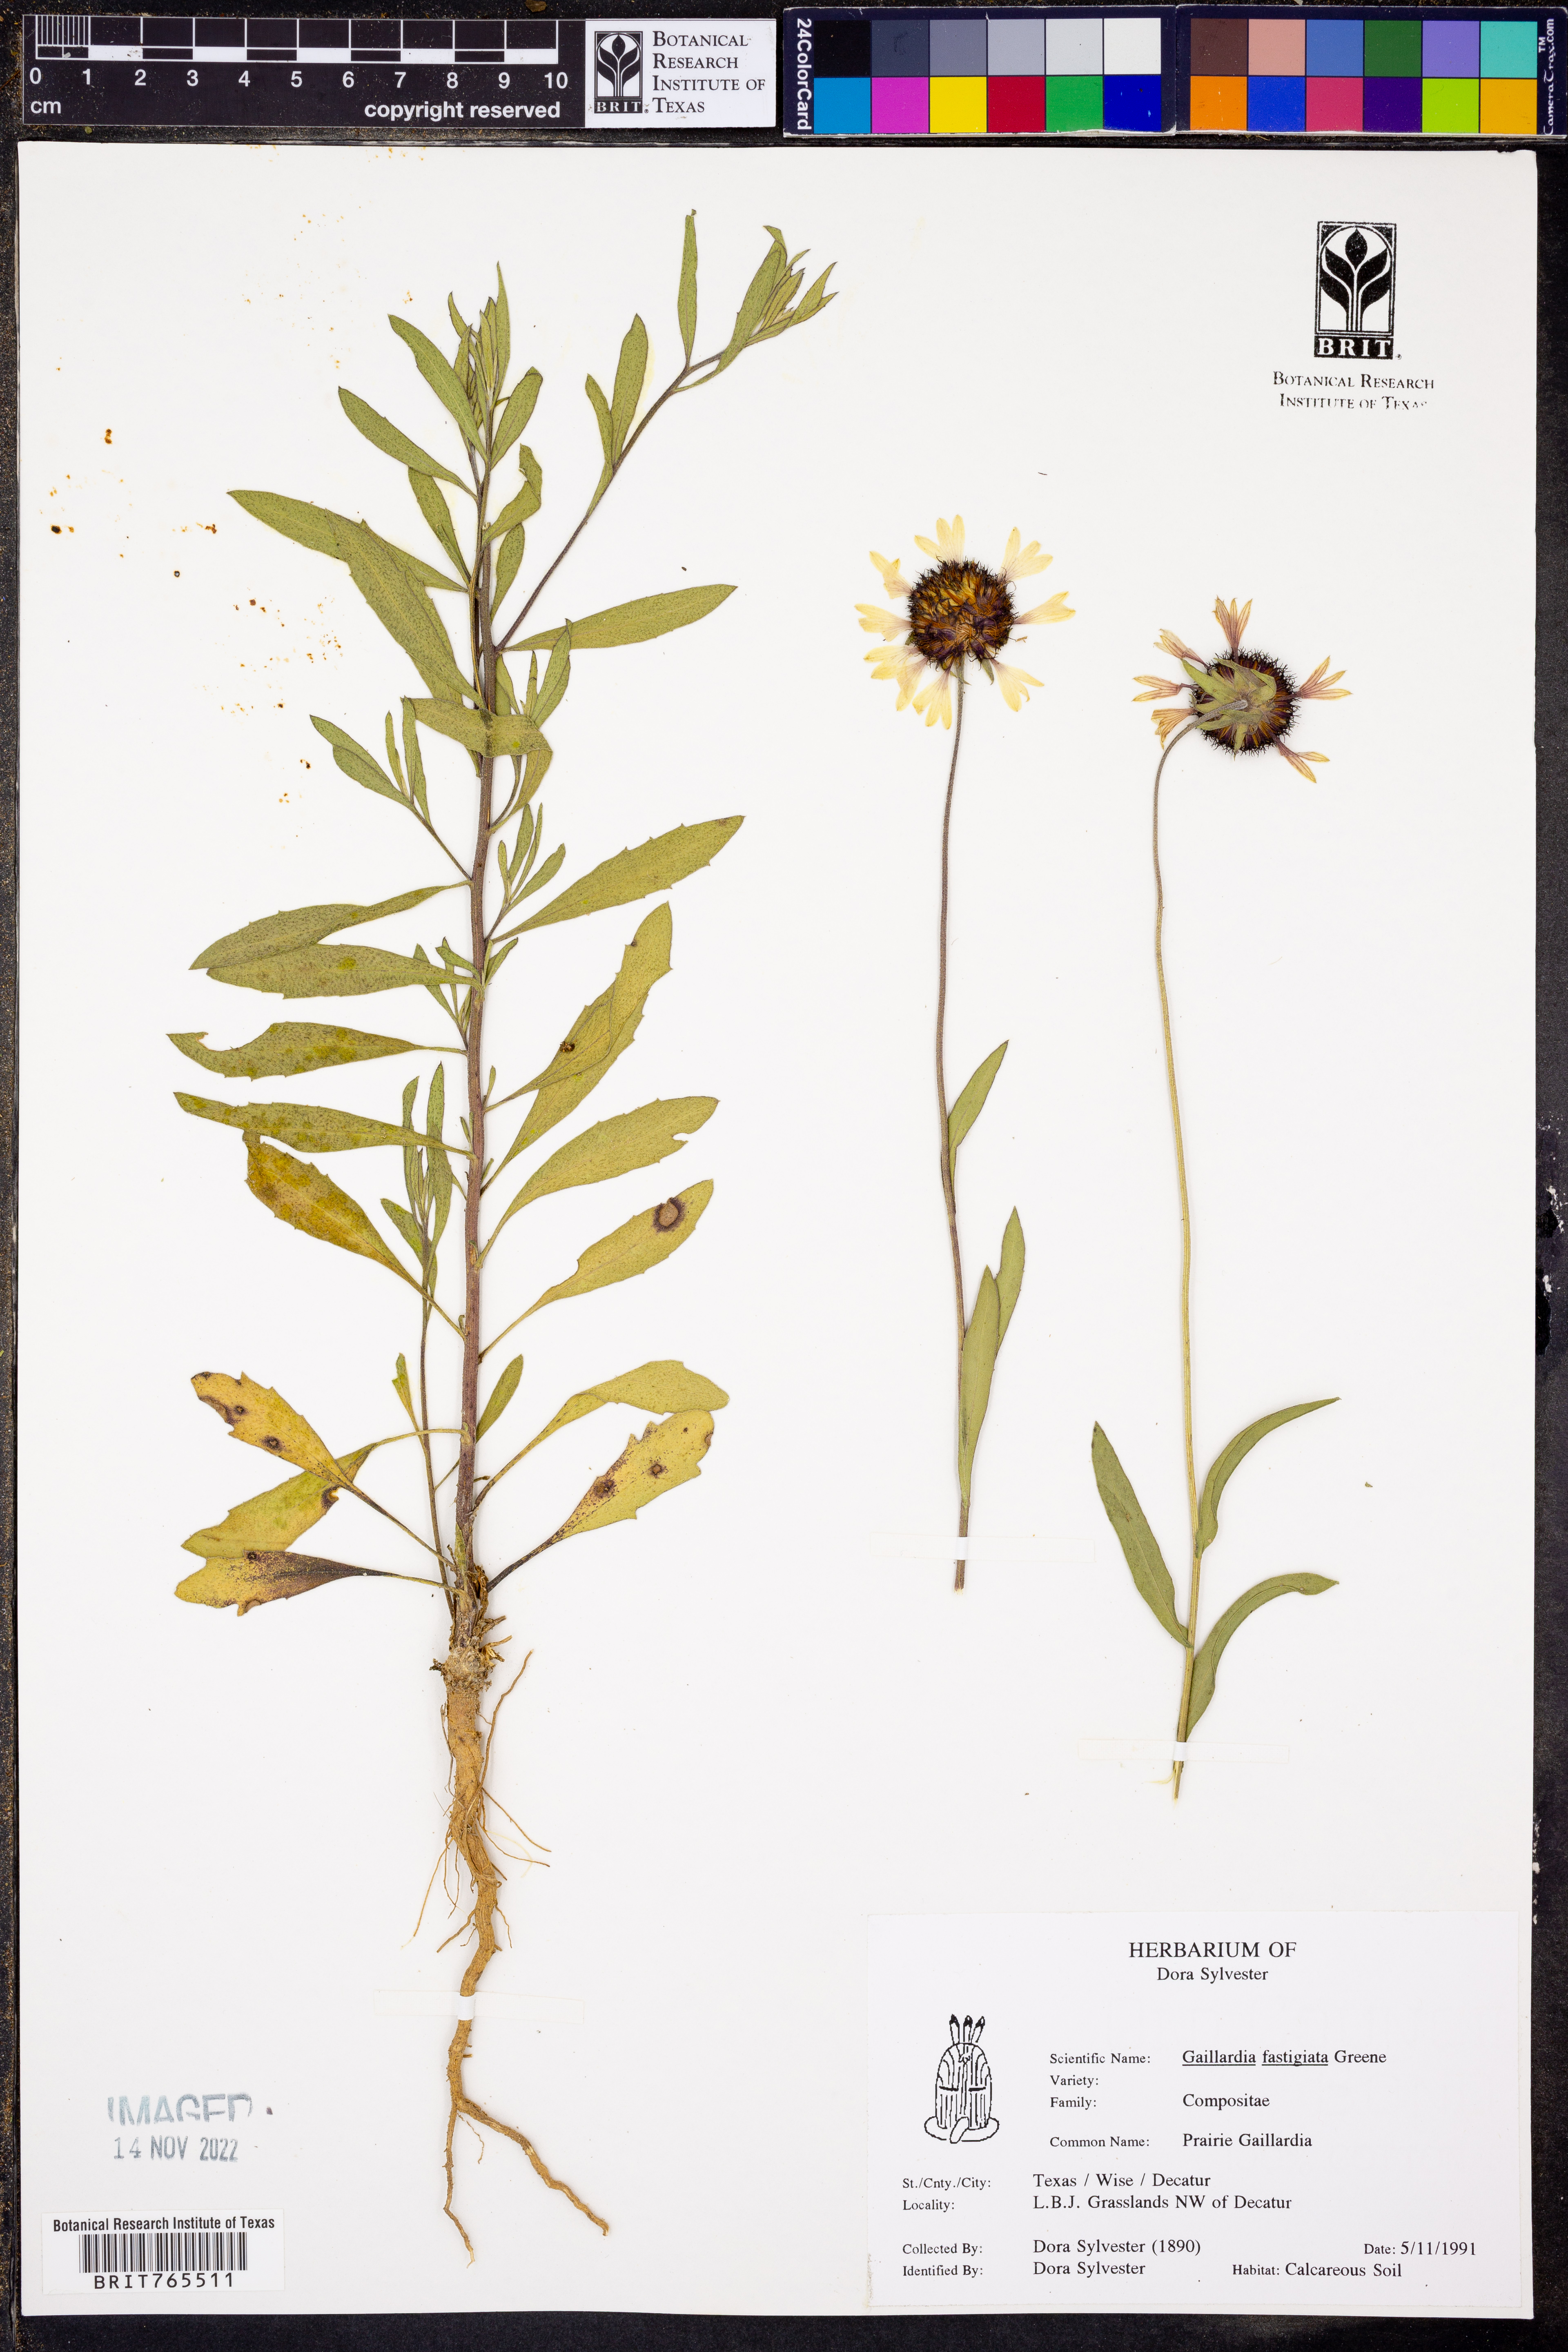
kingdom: Plantae
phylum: Tracheophyta
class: Magnoliopsida
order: Asterales
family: Asteraceae
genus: Gaillardia
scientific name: Gaillardia aestivalis
